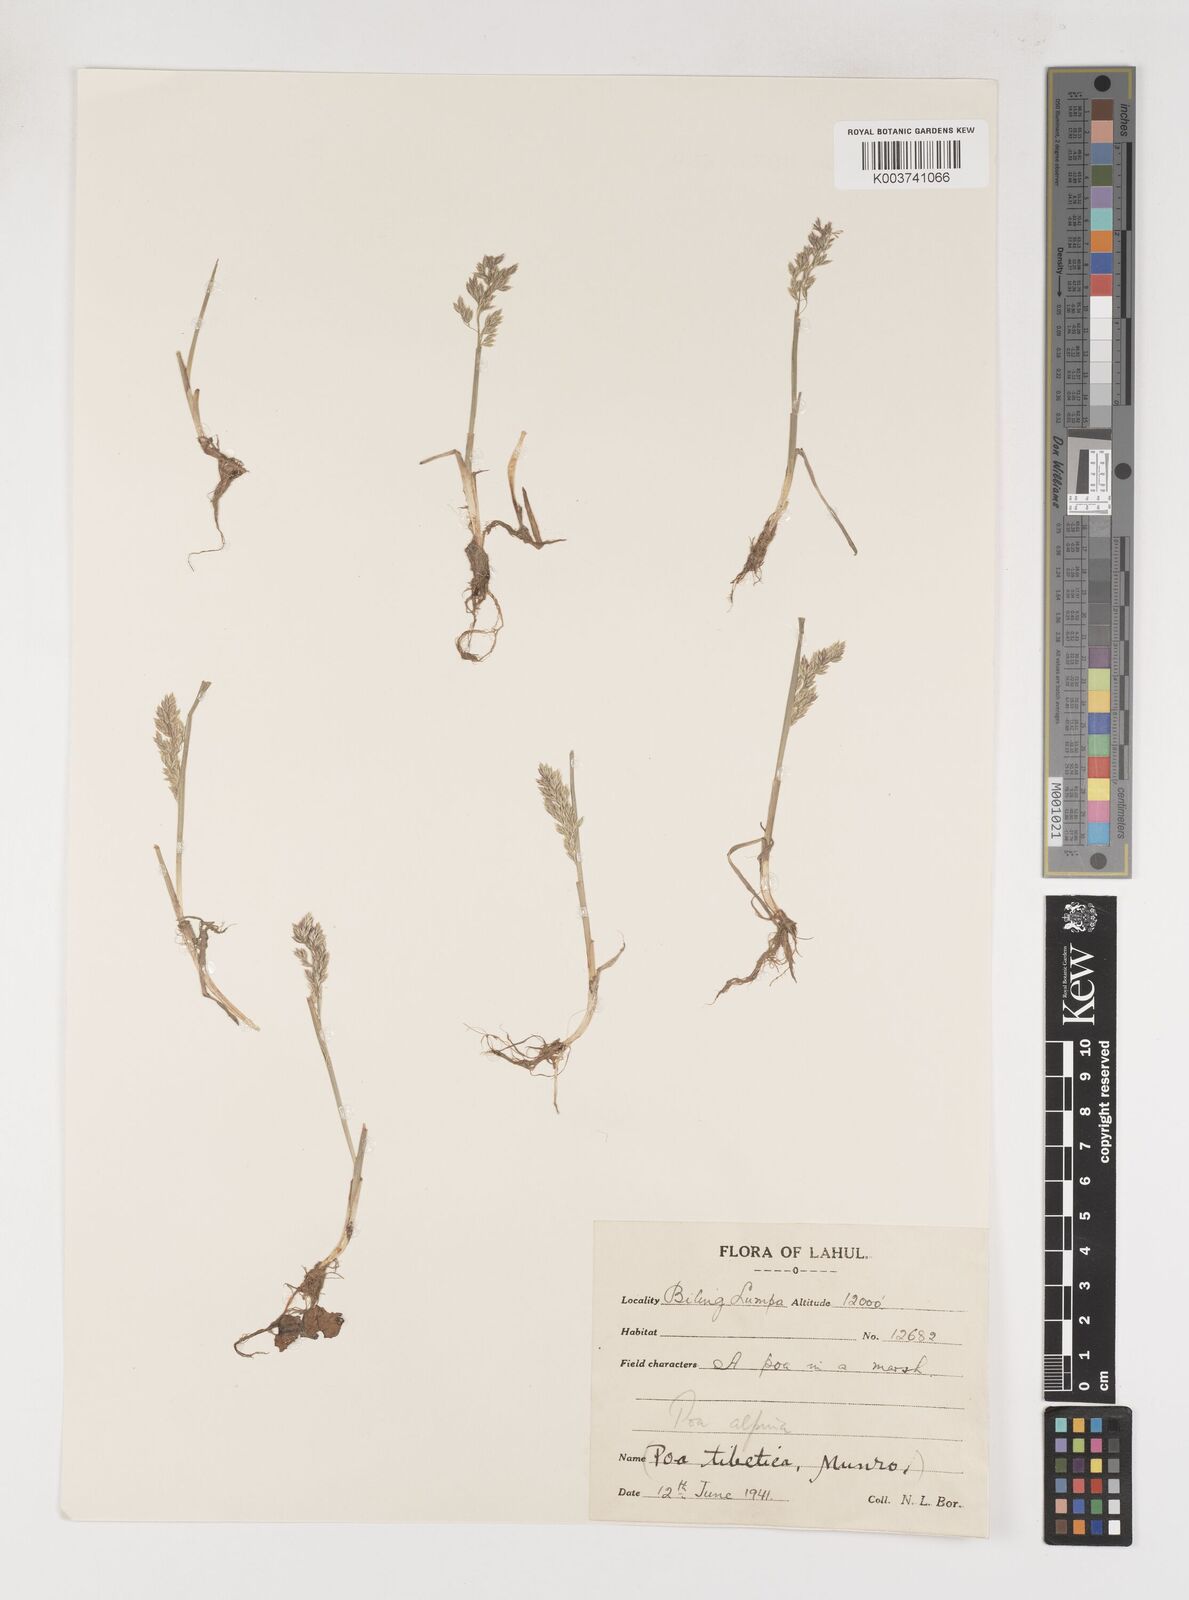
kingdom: Plantae
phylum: Tracheophyta
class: Liliopsida
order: Poales
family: Poaceae
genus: Poa
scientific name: Poa alpina
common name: Alpine bluegrass
